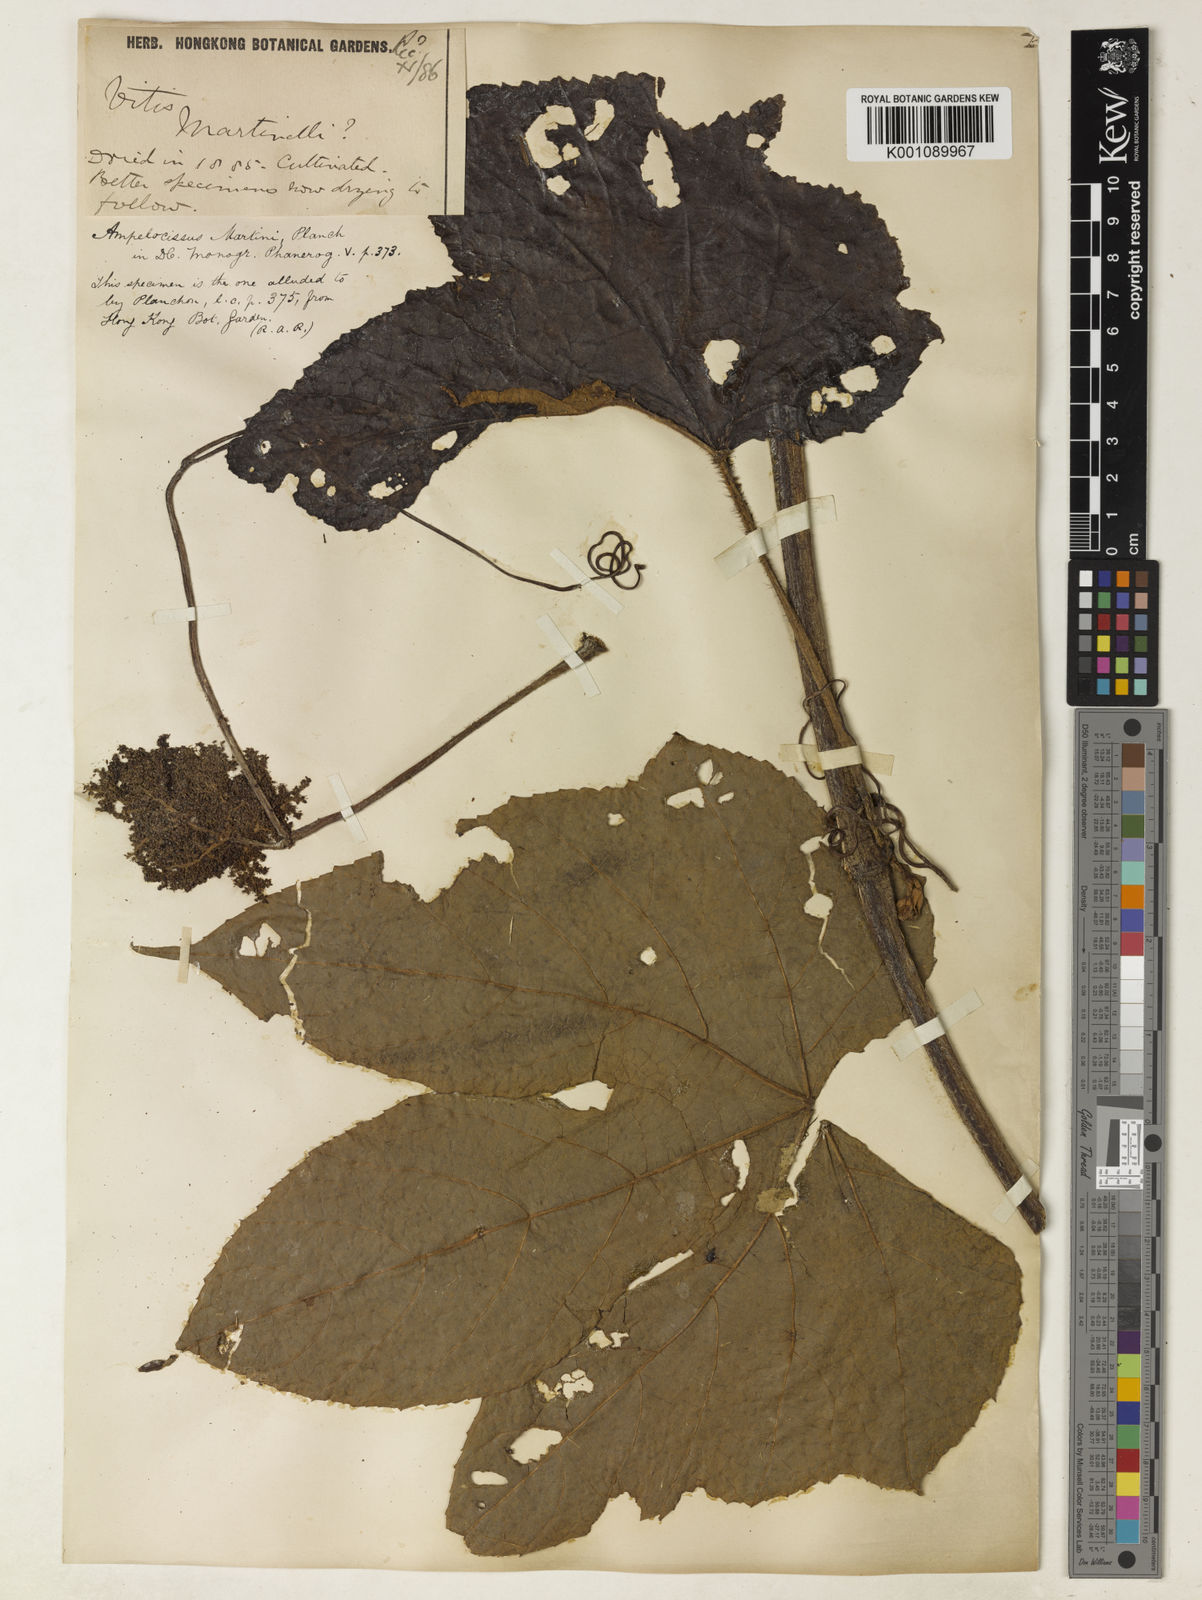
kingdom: Plantae
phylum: Tracheophyta
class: Magnoliopsida
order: Vitales
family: Vitaceae
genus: Ampelocissus
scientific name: Ampelocissus martini
